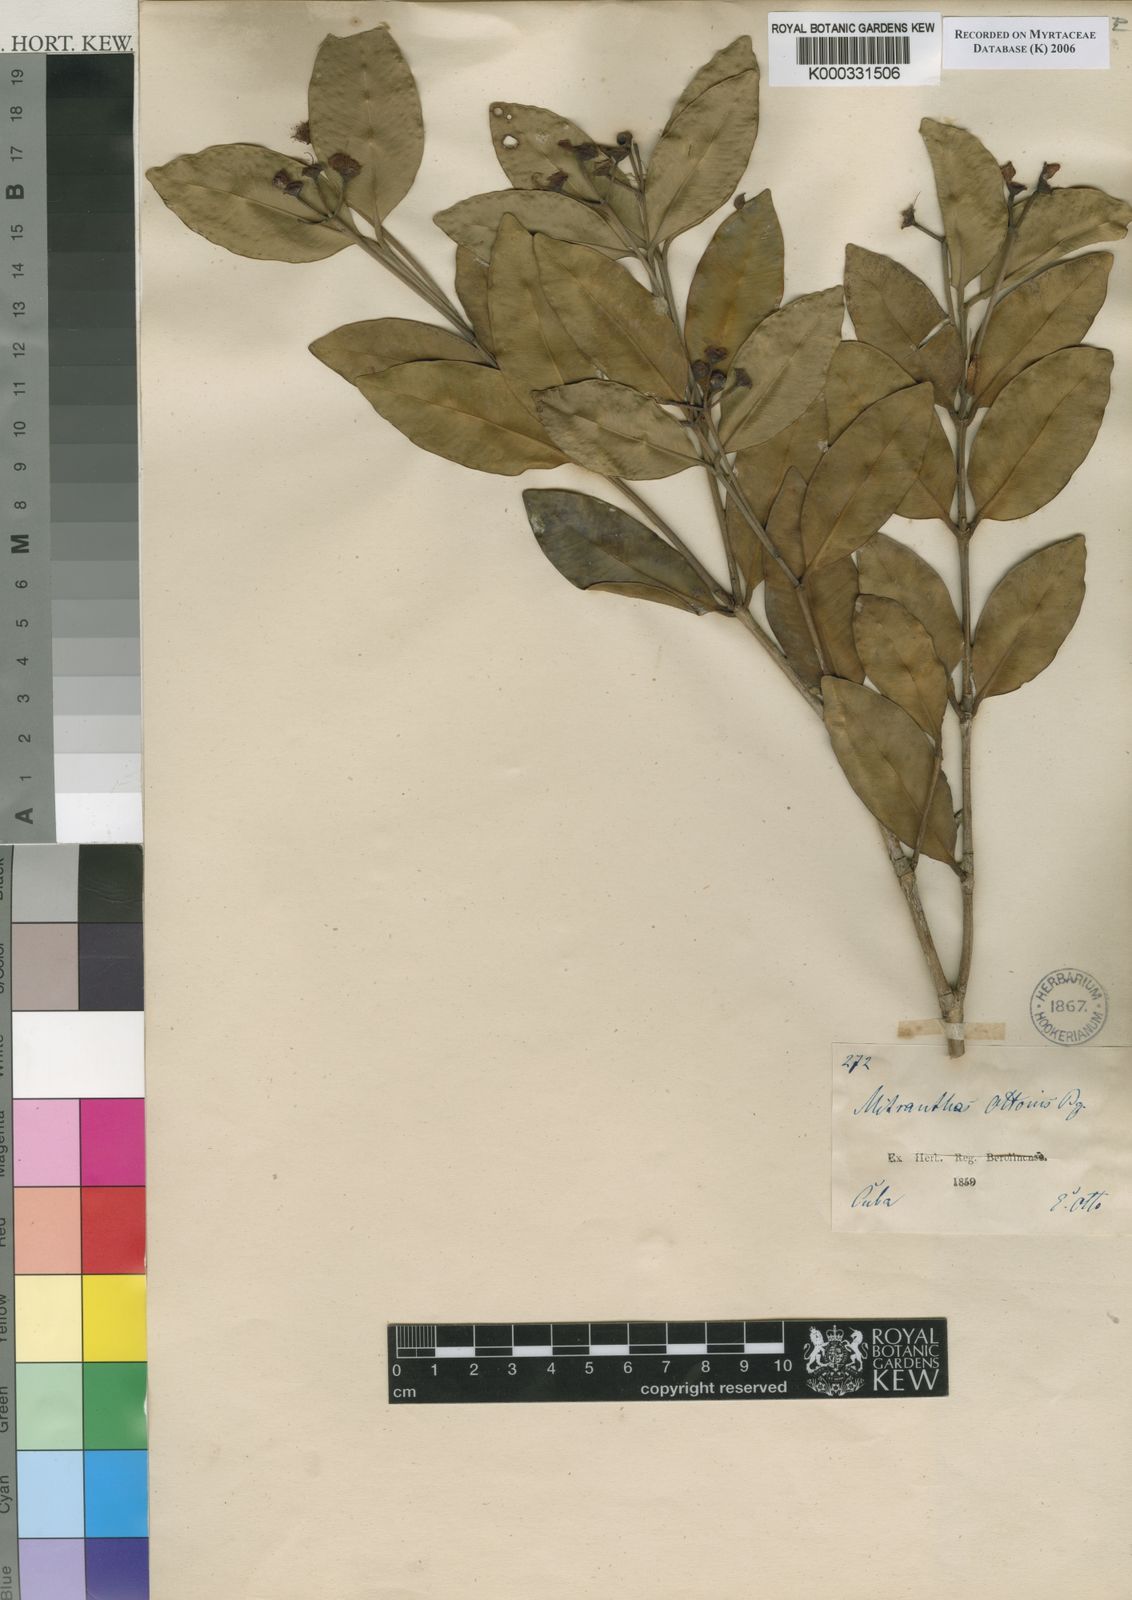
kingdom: Plantae
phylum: Tracheophyta
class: Magnoliopsida
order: Myrtales
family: Myrtaceae
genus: Myrcia
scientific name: Myrcia ottonis
